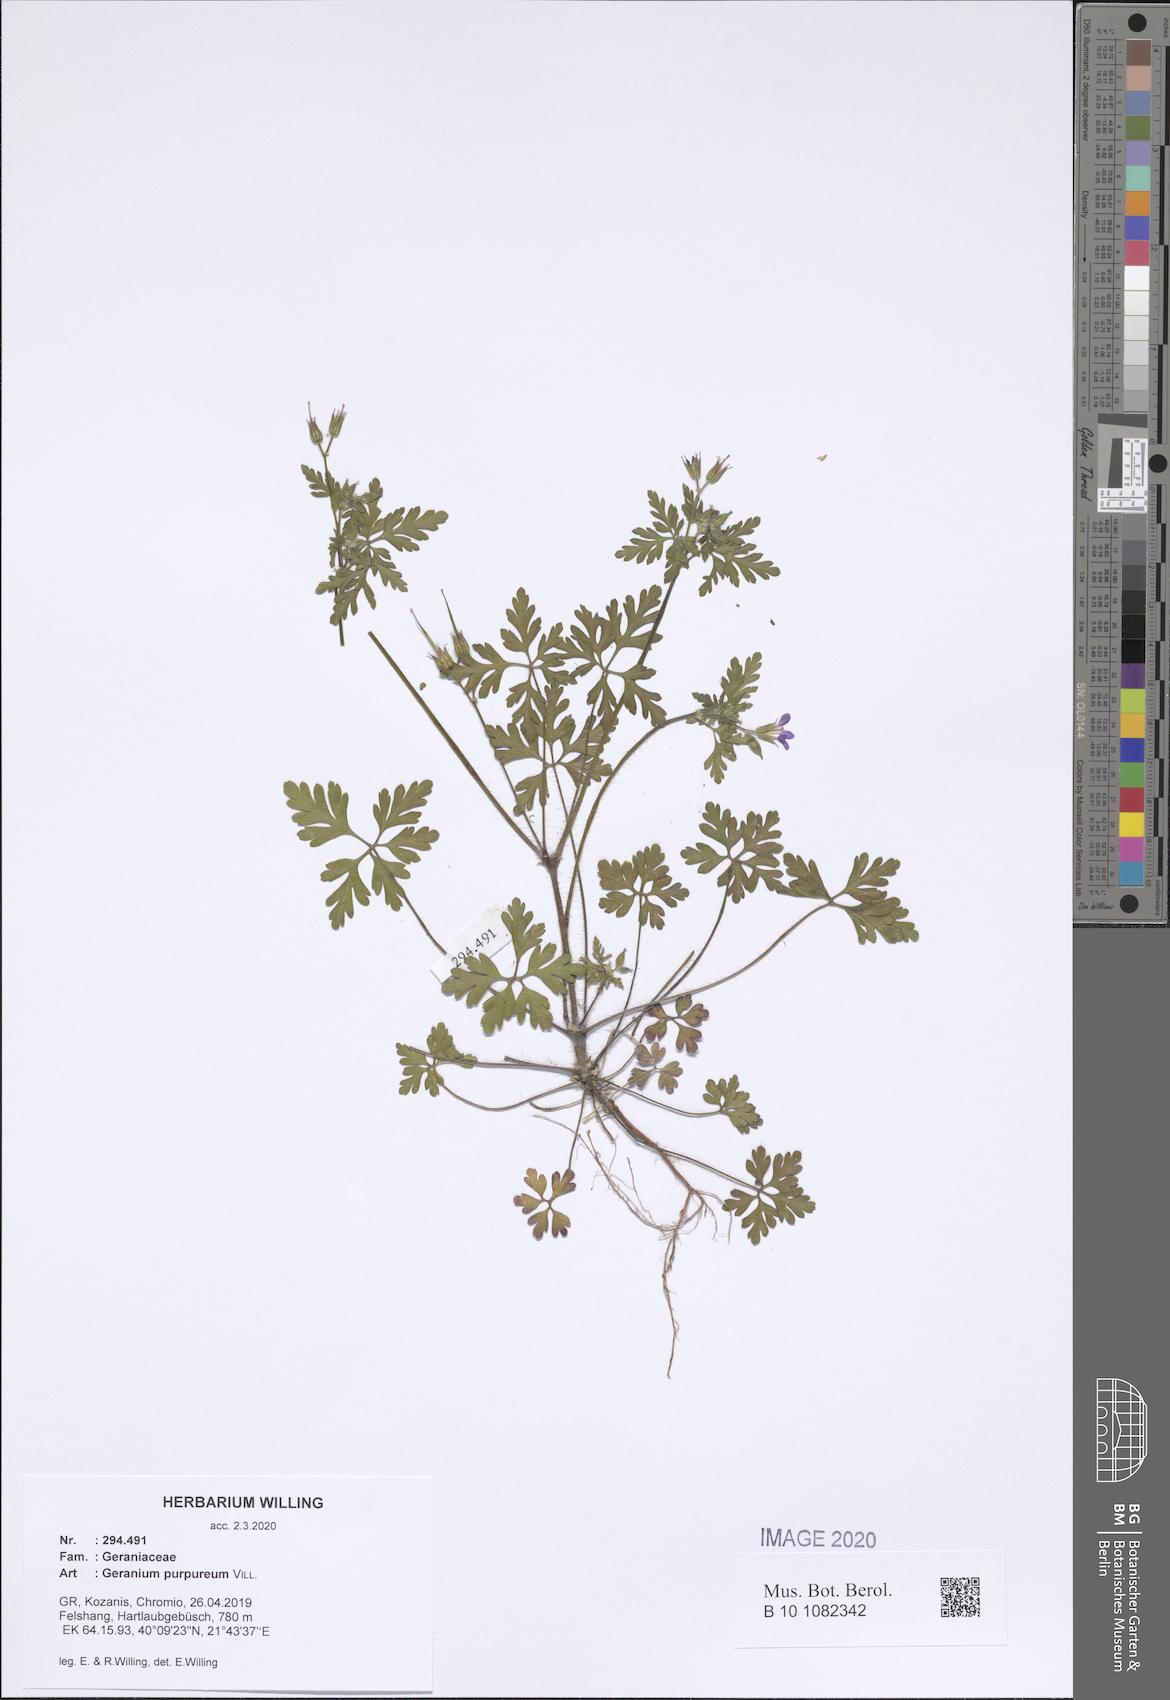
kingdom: Plantae
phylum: Tracheophyta
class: Magnoliopsida
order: Geraniales
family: Geraniaceae
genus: Geranium
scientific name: Geranium purpureum
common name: Little-robin
